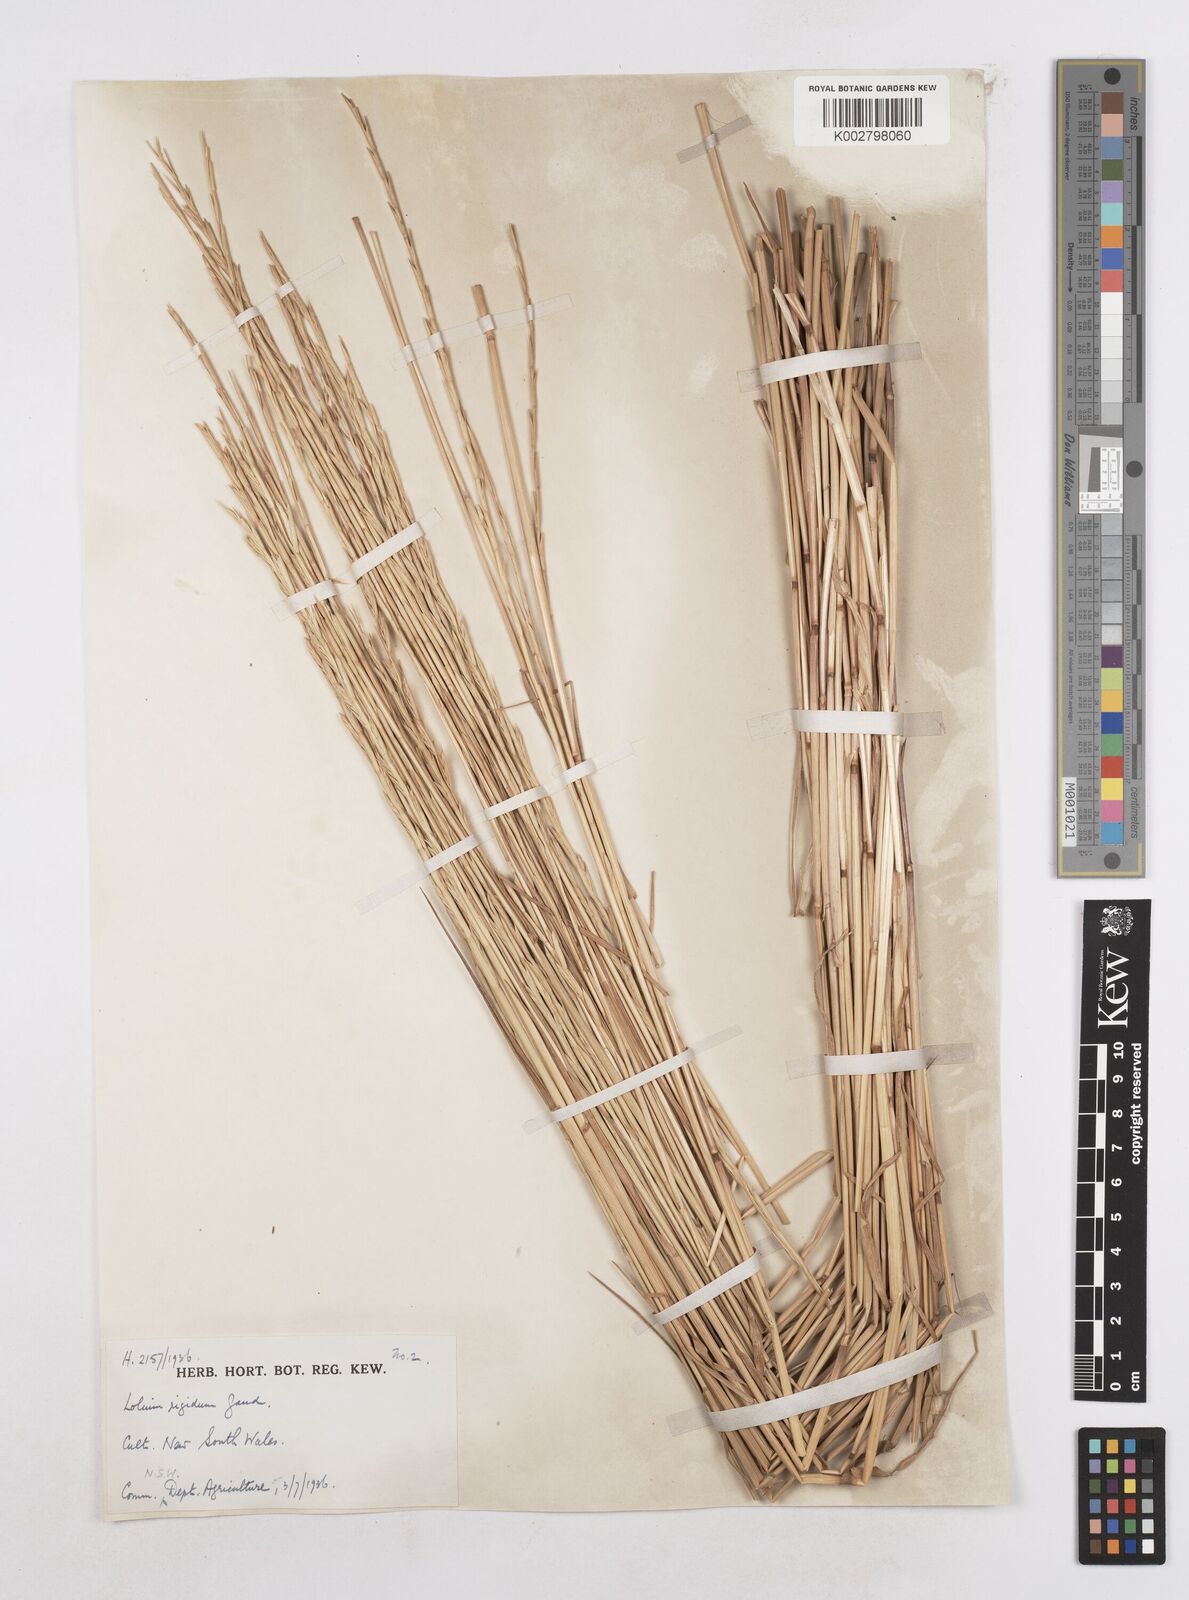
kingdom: Plantae
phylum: Tracheophyta
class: Liliopsida
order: Poales
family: Poaceae
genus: Lolium
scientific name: Lolium
